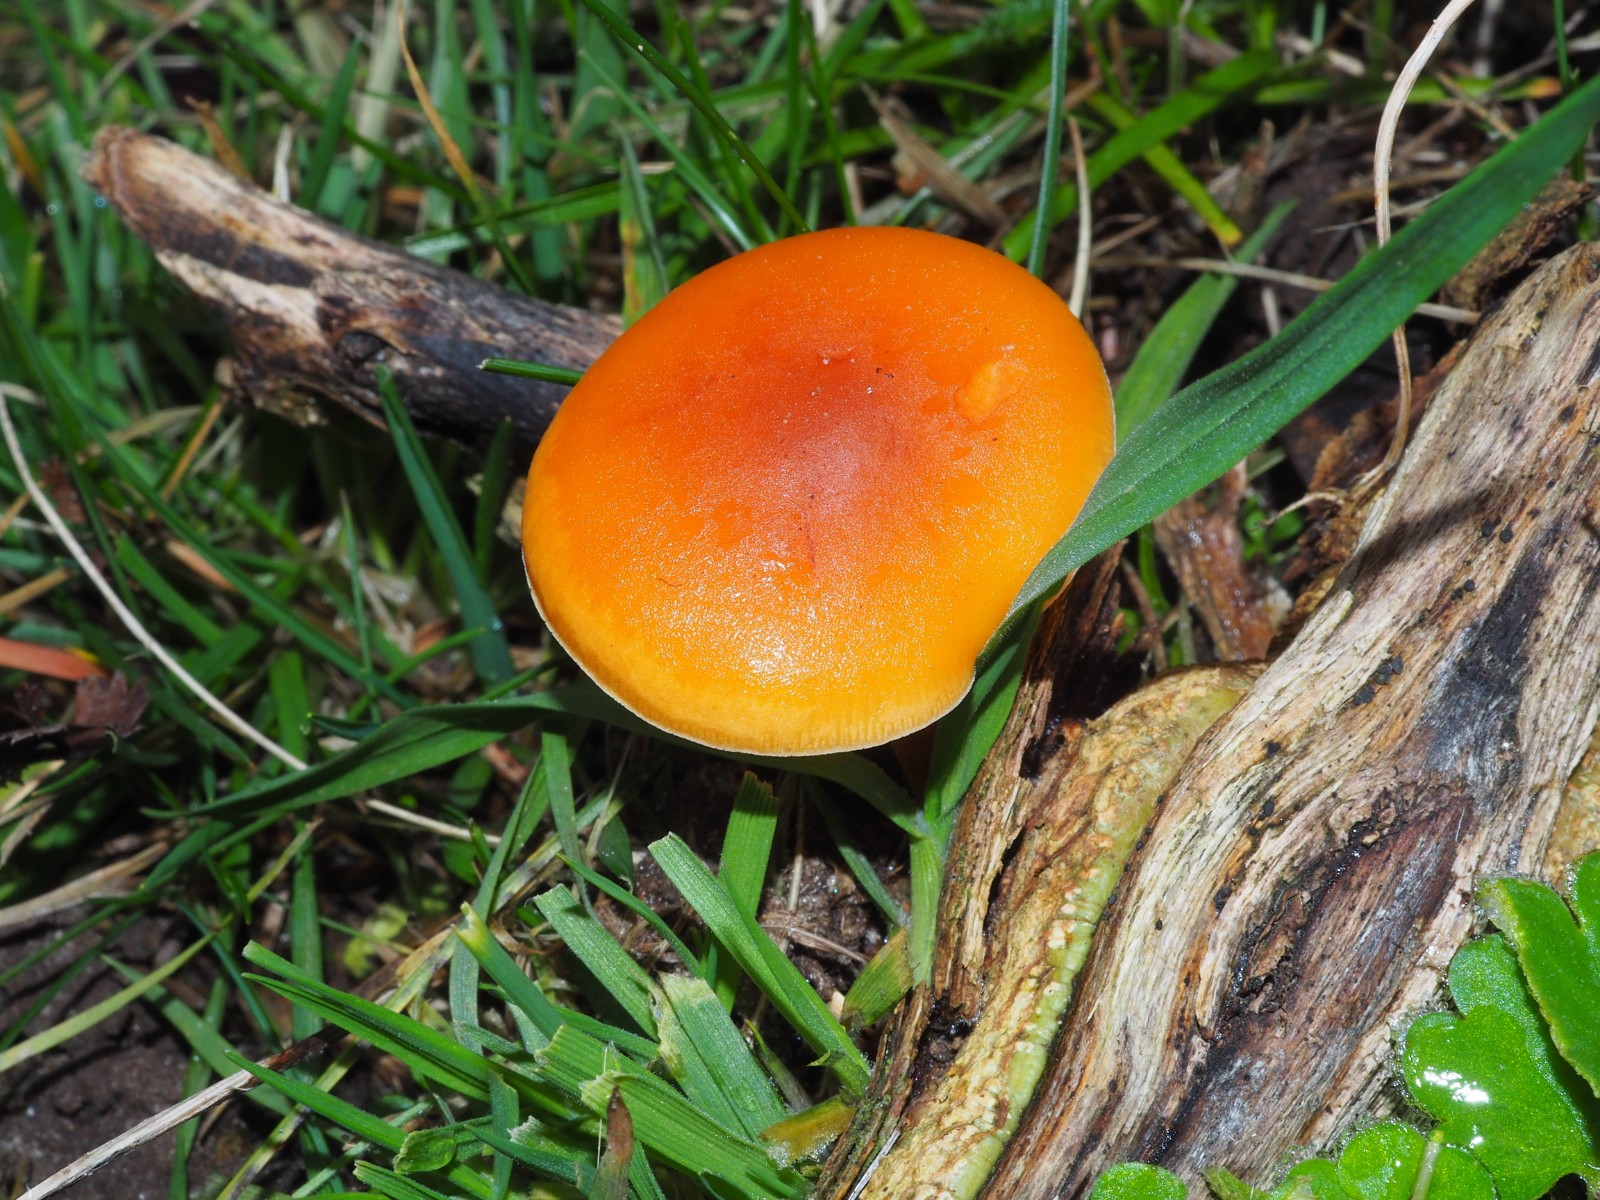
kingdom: Fungi
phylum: Basidiomycota
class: Agaricomycetes
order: Agaricales
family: Physalacriaceae
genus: Flammulina
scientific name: Flammulina velutipes
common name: gul fløjlsfod
